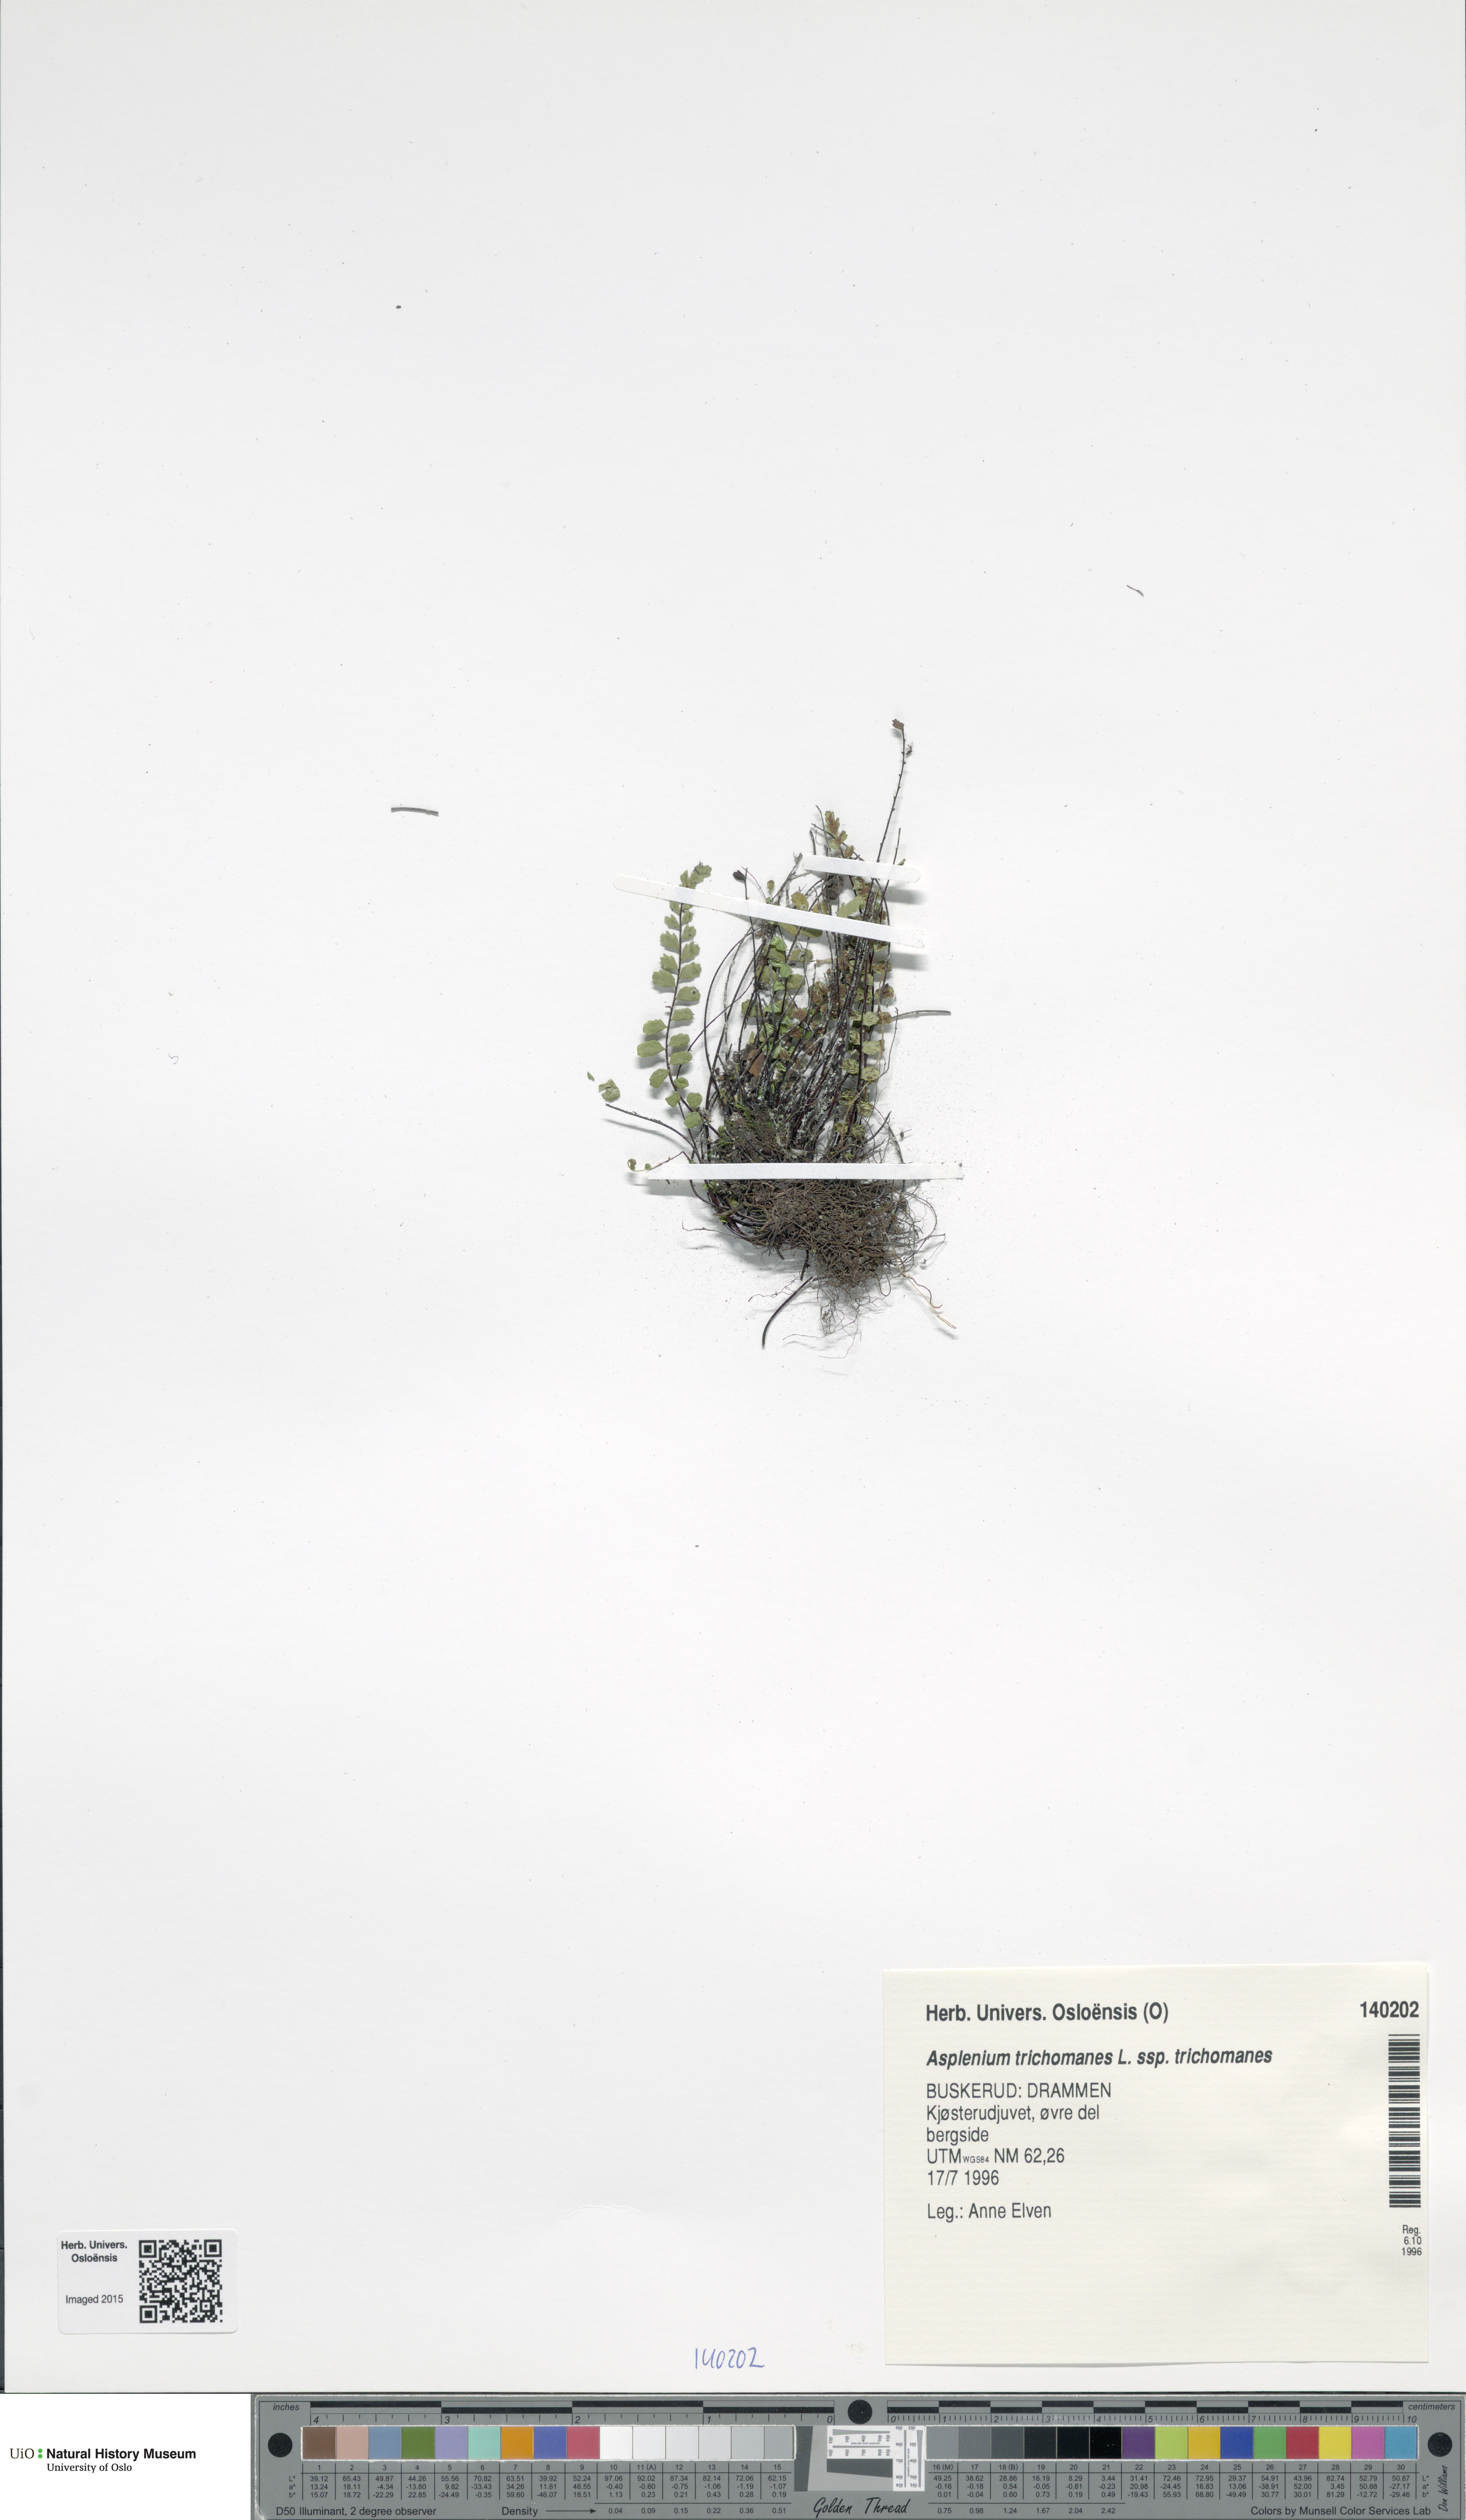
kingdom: Plantae
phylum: Tracheophyta
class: Polypodiopsida
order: Polypodiales
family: Aspleniaceae
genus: Asplenium
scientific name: Asplenium trichomanes
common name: Maidenhair spleenwort
